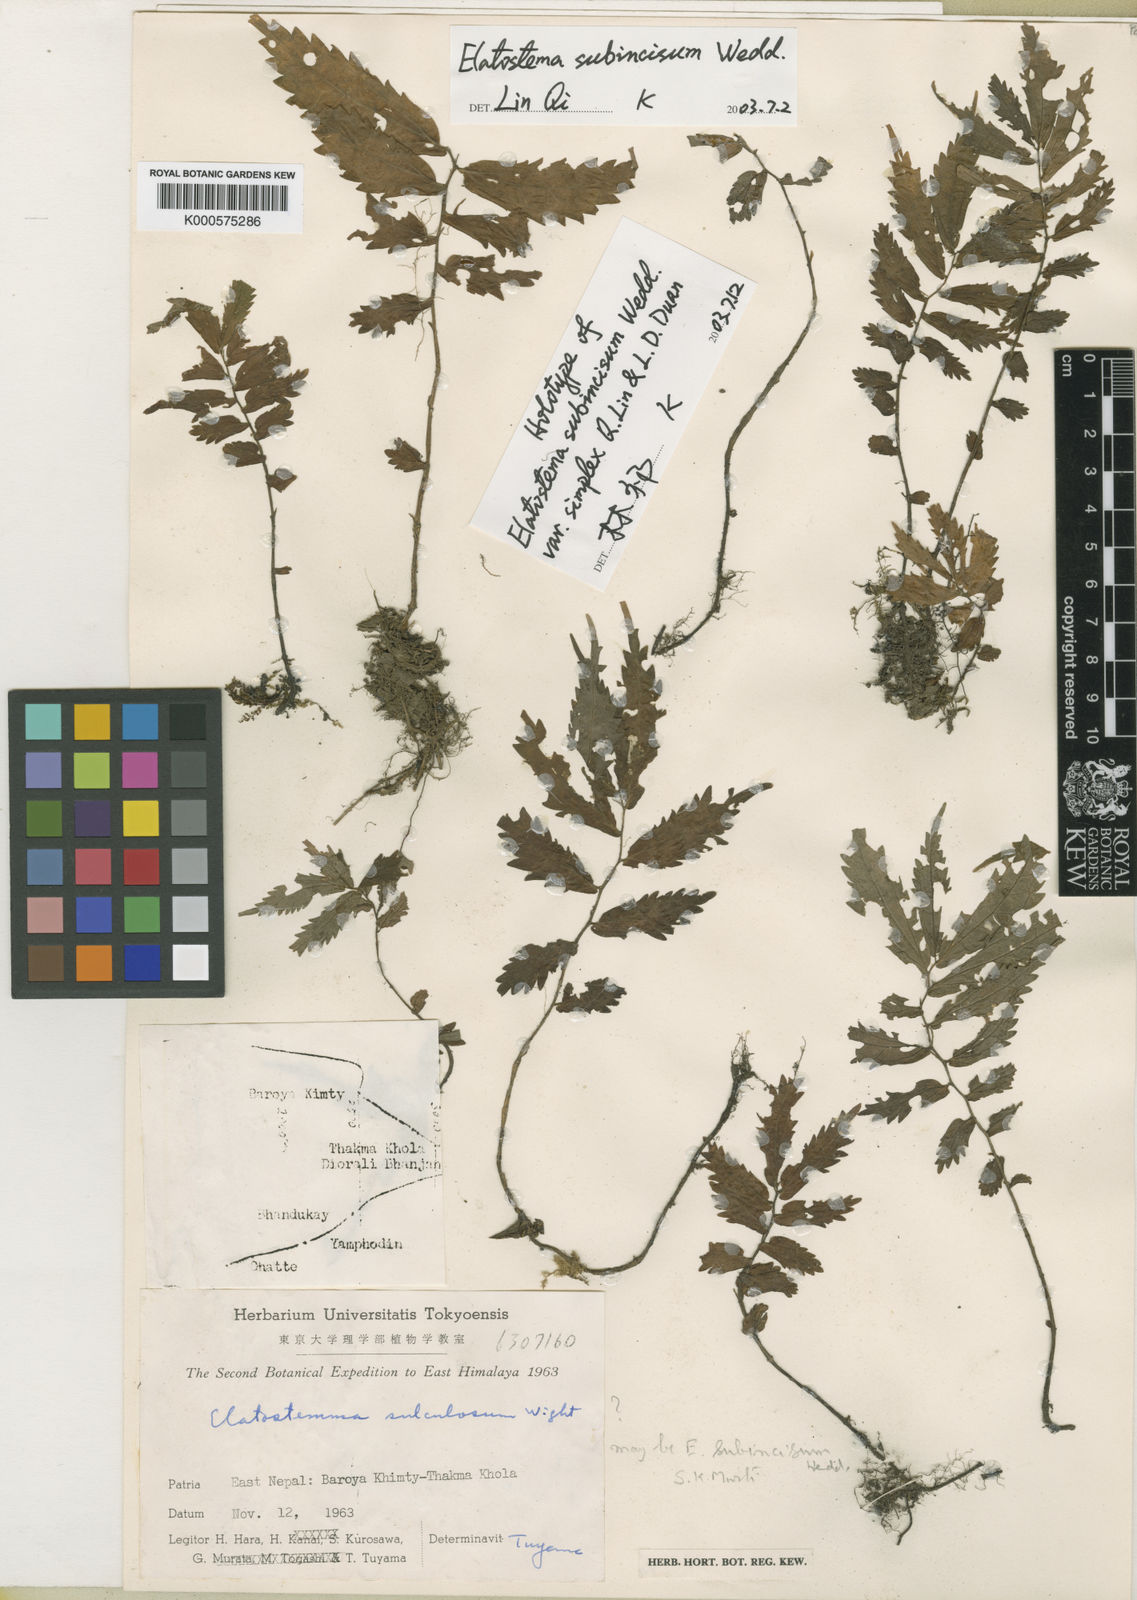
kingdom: Plantae
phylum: Tracheophyta
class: Magnoliopsida
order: Rosales
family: Urticaceae
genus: Elatostema
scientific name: Elatostema subincisum
